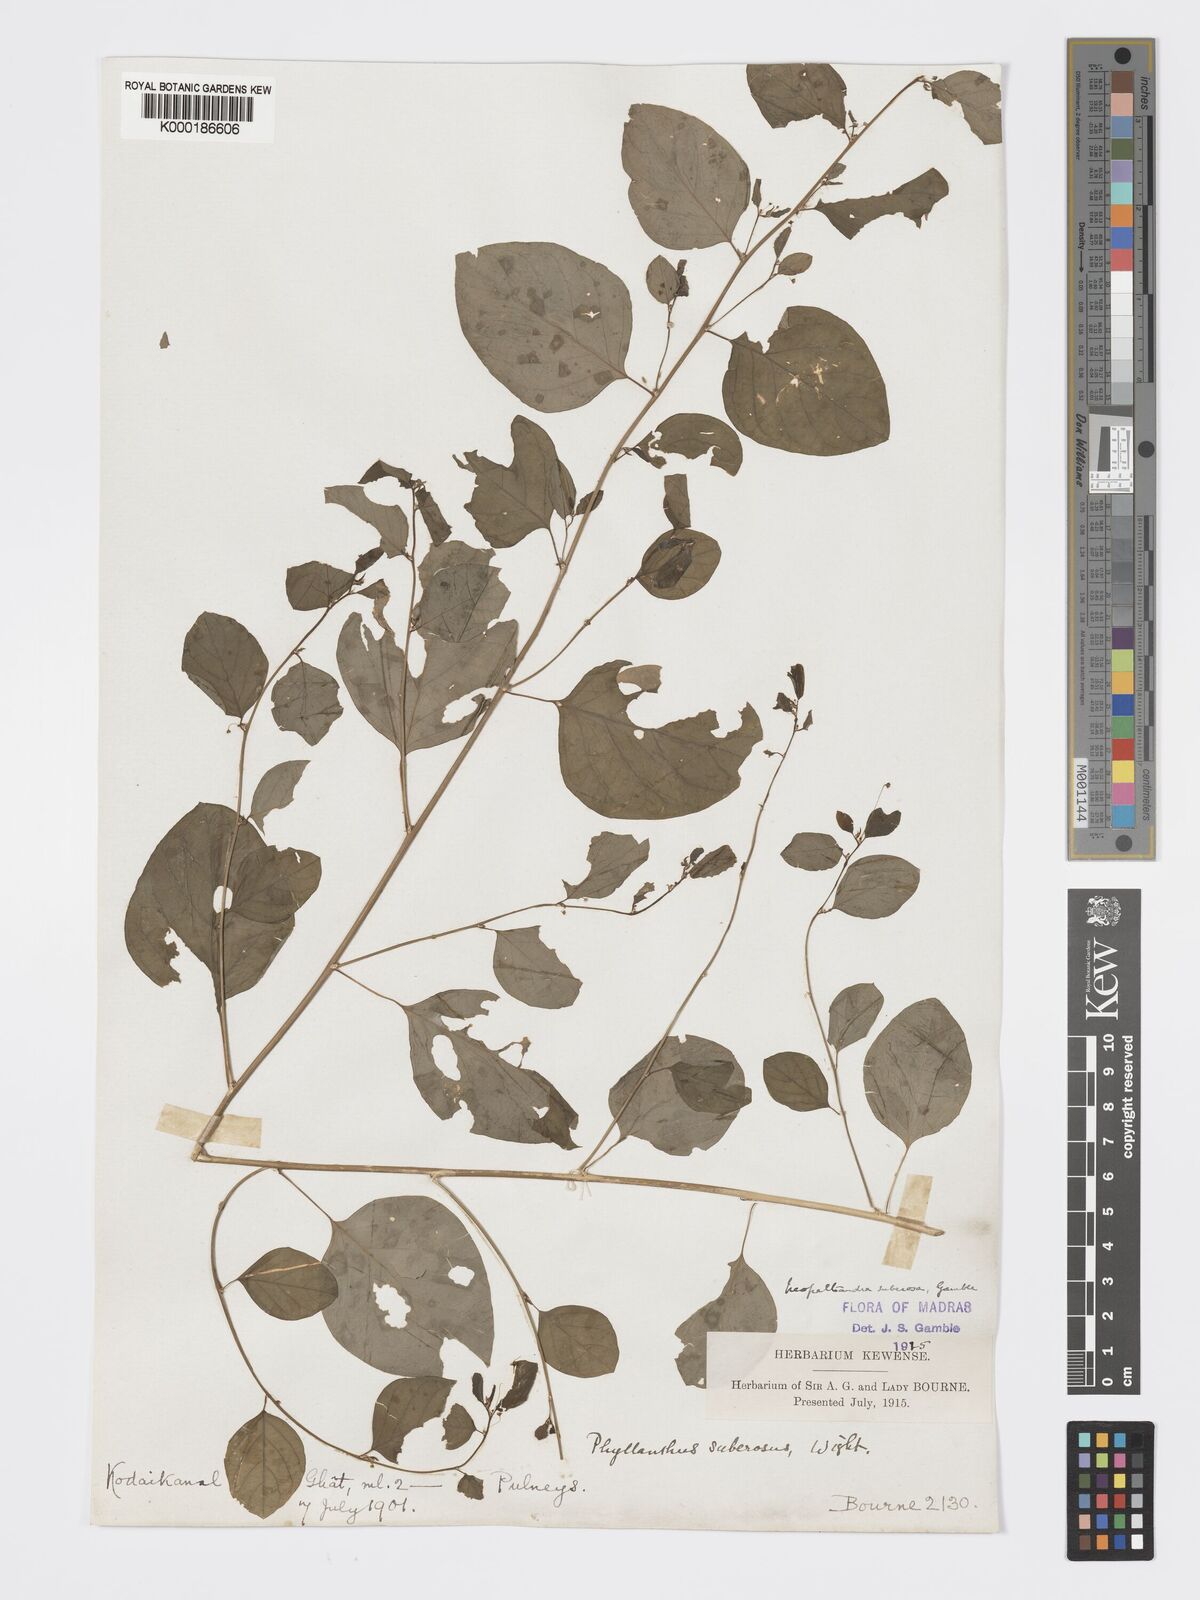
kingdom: Plantae
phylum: Tracheophyta
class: Magnoliopsida
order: Malpighiales
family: Phyllanthaceae
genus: Meineckia
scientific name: Meineckia parvifolia
